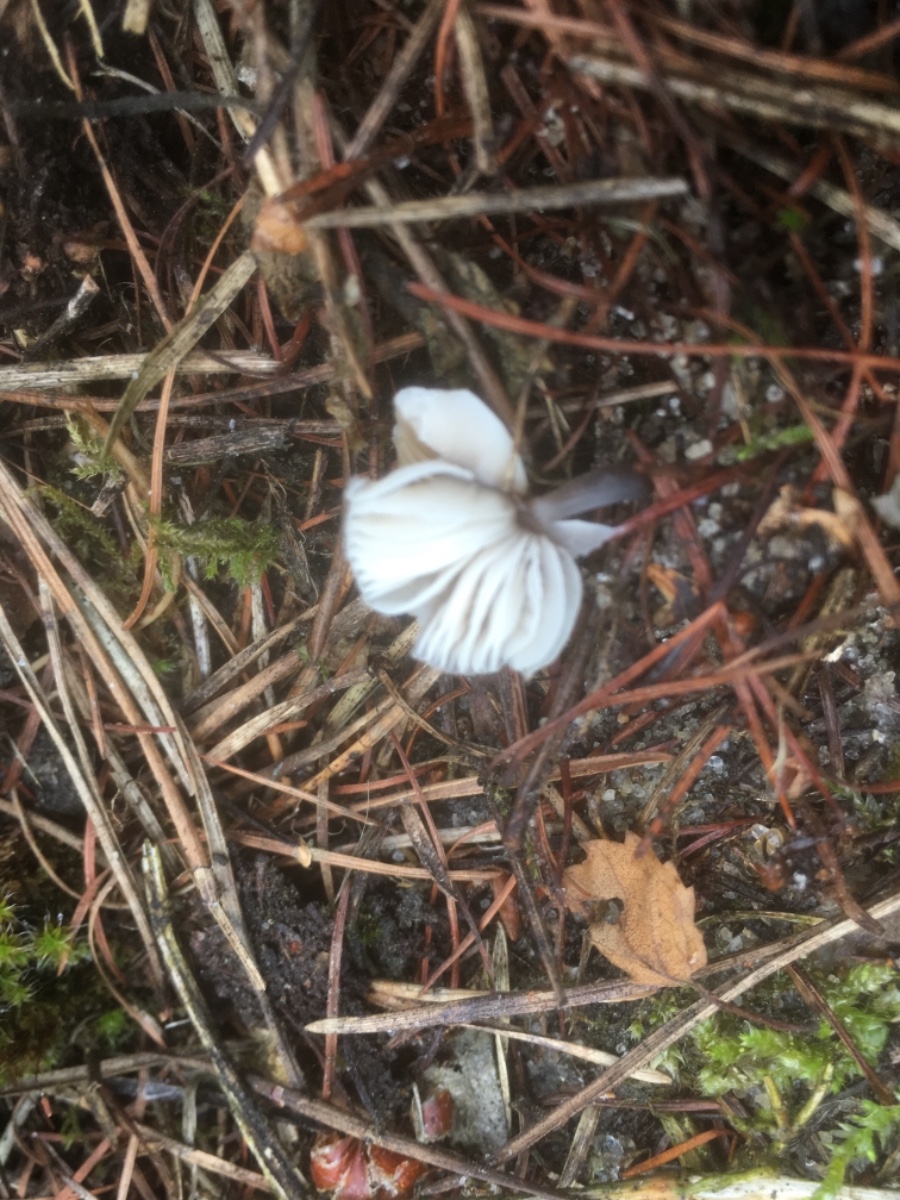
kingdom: Fungi
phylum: Basidiomycota
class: Agaricomycetes
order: Agaricales
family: Mycenaceae
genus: Mycena
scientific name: Mycena
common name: huesvamp
